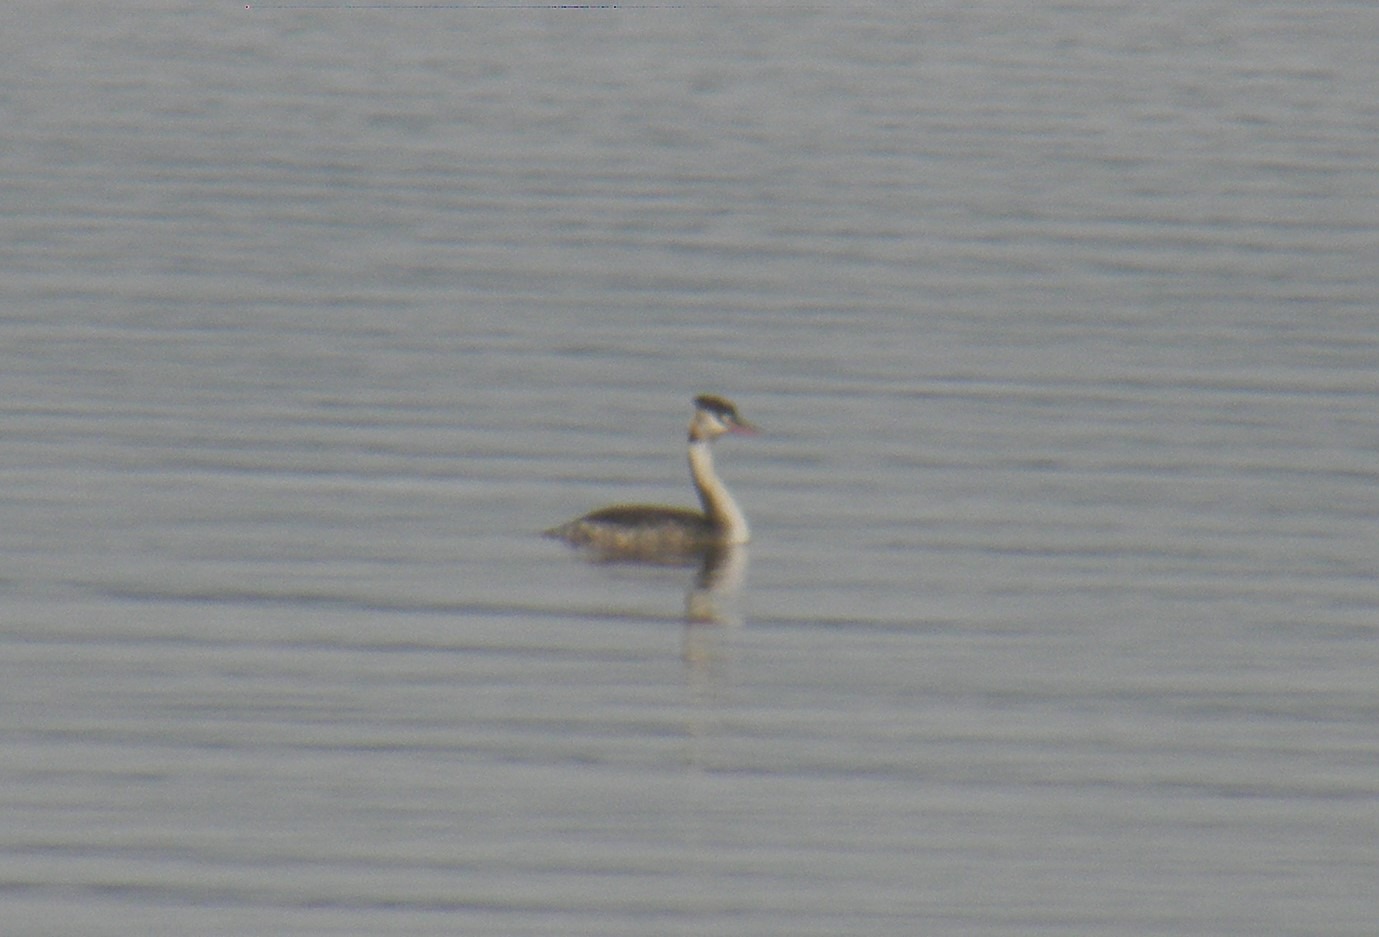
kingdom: Animalia
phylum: Chordata
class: Aves
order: Podicipediformes
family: Podicipedidae
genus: Podiceps
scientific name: Podiceps cristatus
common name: Toppet lappedykker
